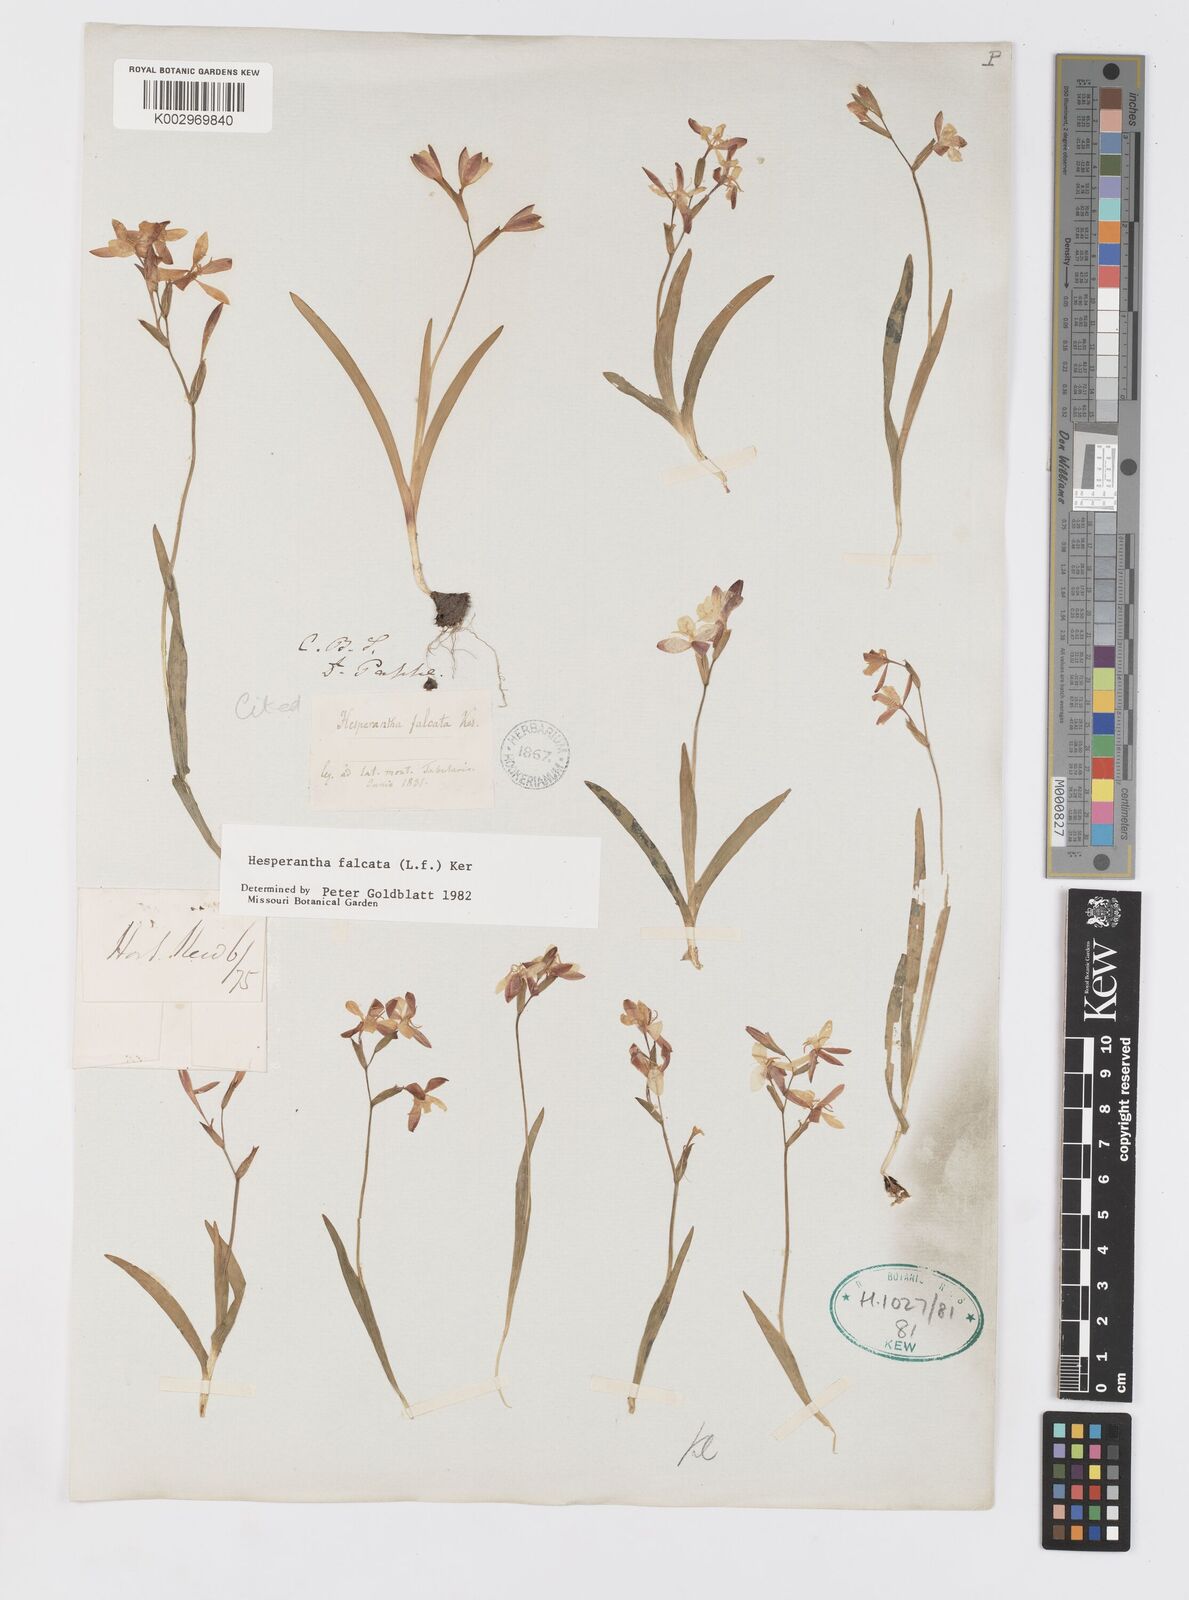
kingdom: Plantae
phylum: Tracheophyta
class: Liliopsida
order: Asparagales
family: Iridaceae
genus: Hesperantha
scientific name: Hesperantha falcata
